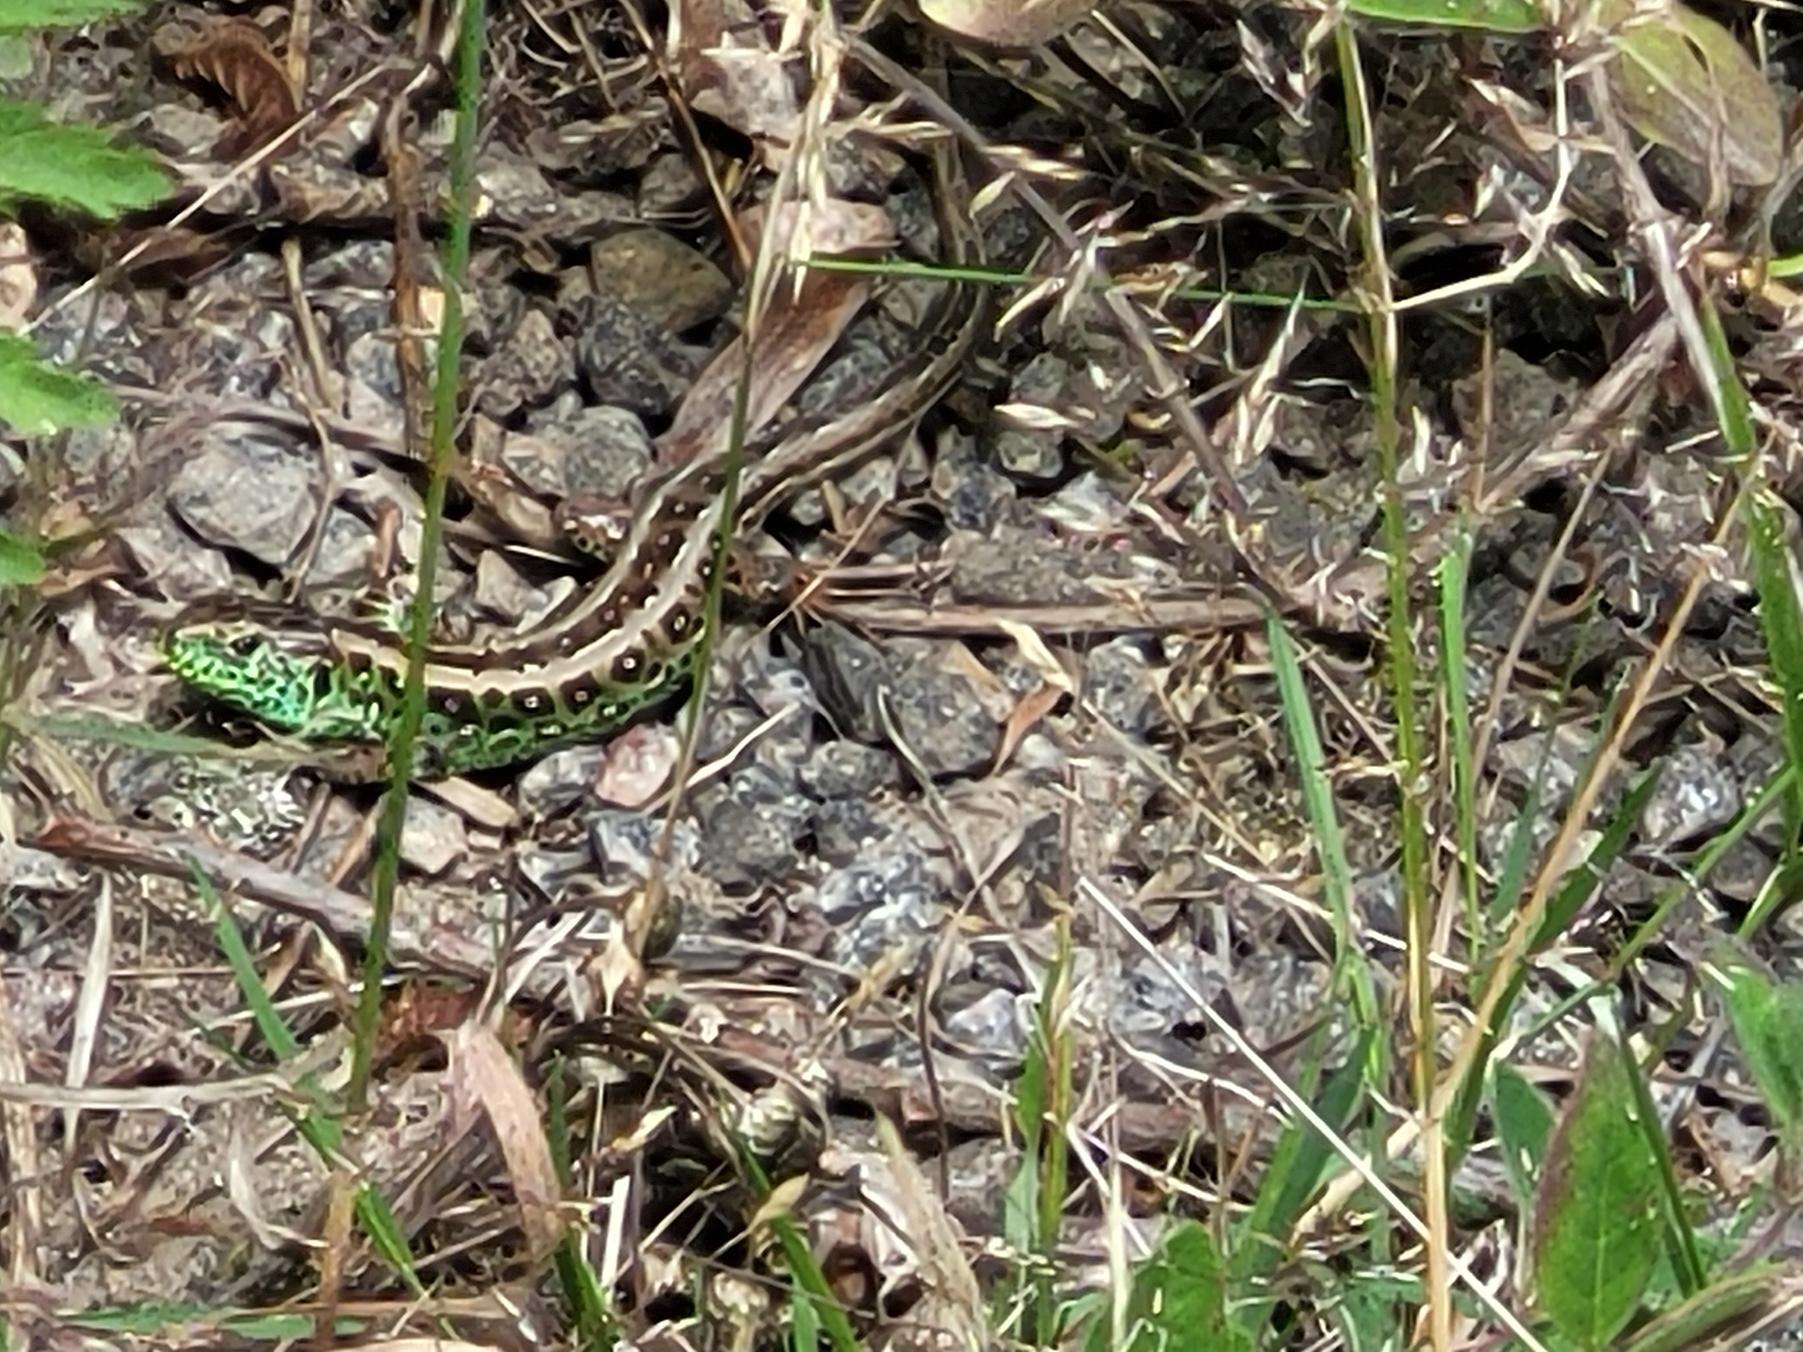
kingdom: Animalia
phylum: Chordata
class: Squamata
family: Lacertidae
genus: Lacerta
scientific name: Lacerta agilis
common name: Markfirben
